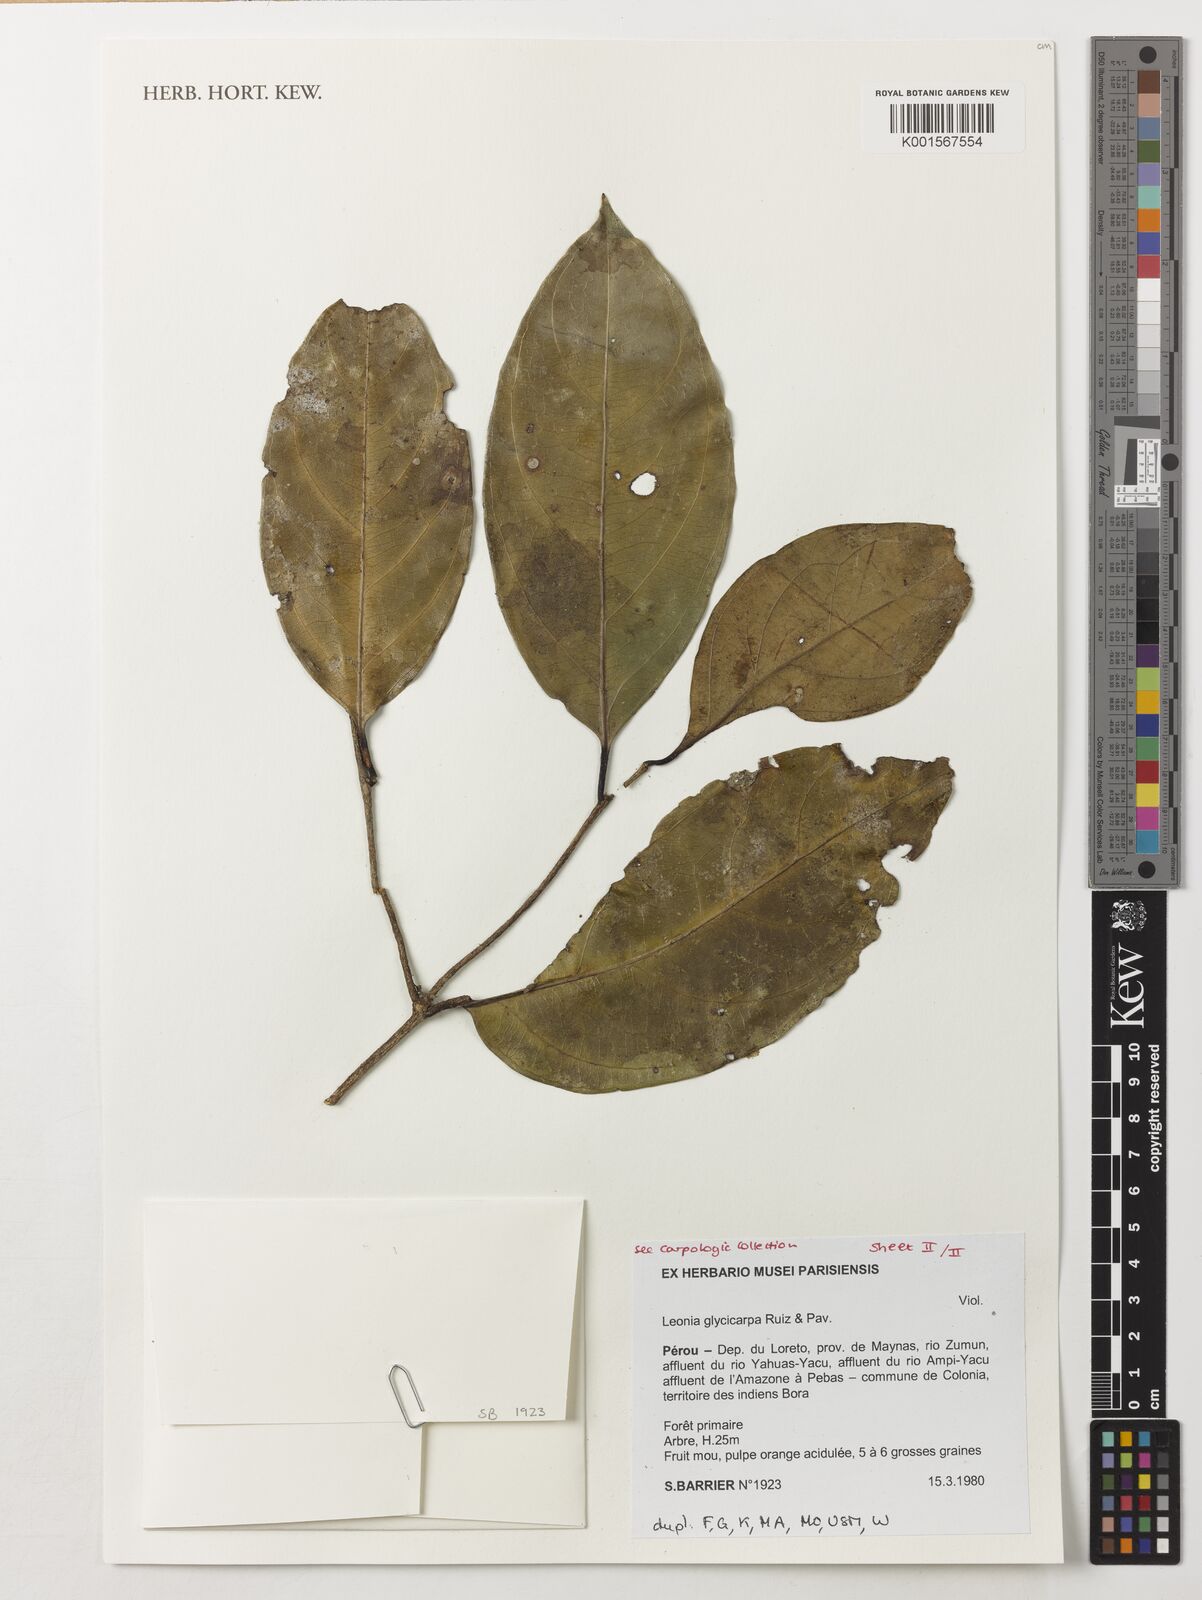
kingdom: Plantae
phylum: Tracheophyta
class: Magnoliopsida
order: Malpighiales
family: Violaceae
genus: Leonia
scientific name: Leonia glycycarpa
